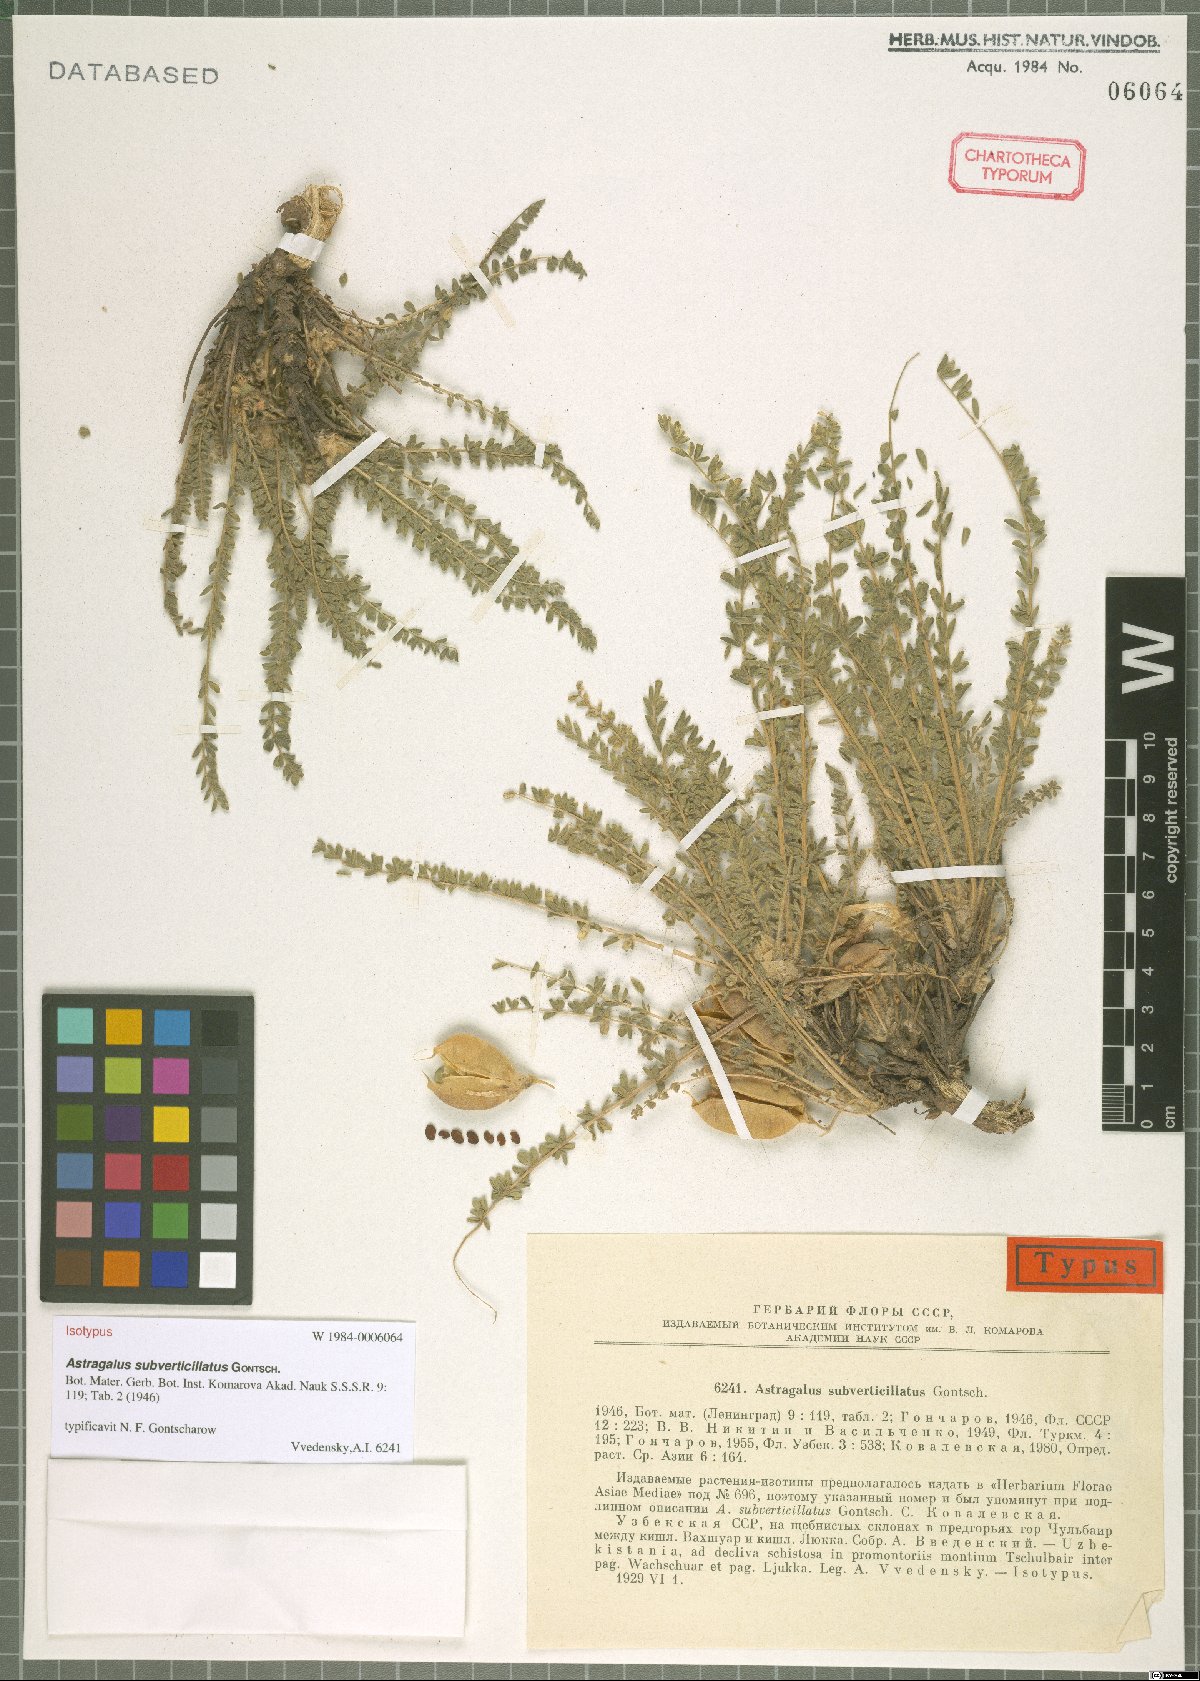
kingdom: Plantae
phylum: Tracheophyta
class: Magnoliopsida
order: Fabales
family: Fabaceae
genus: Astragalus
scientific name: Astragalus subverticillatus
